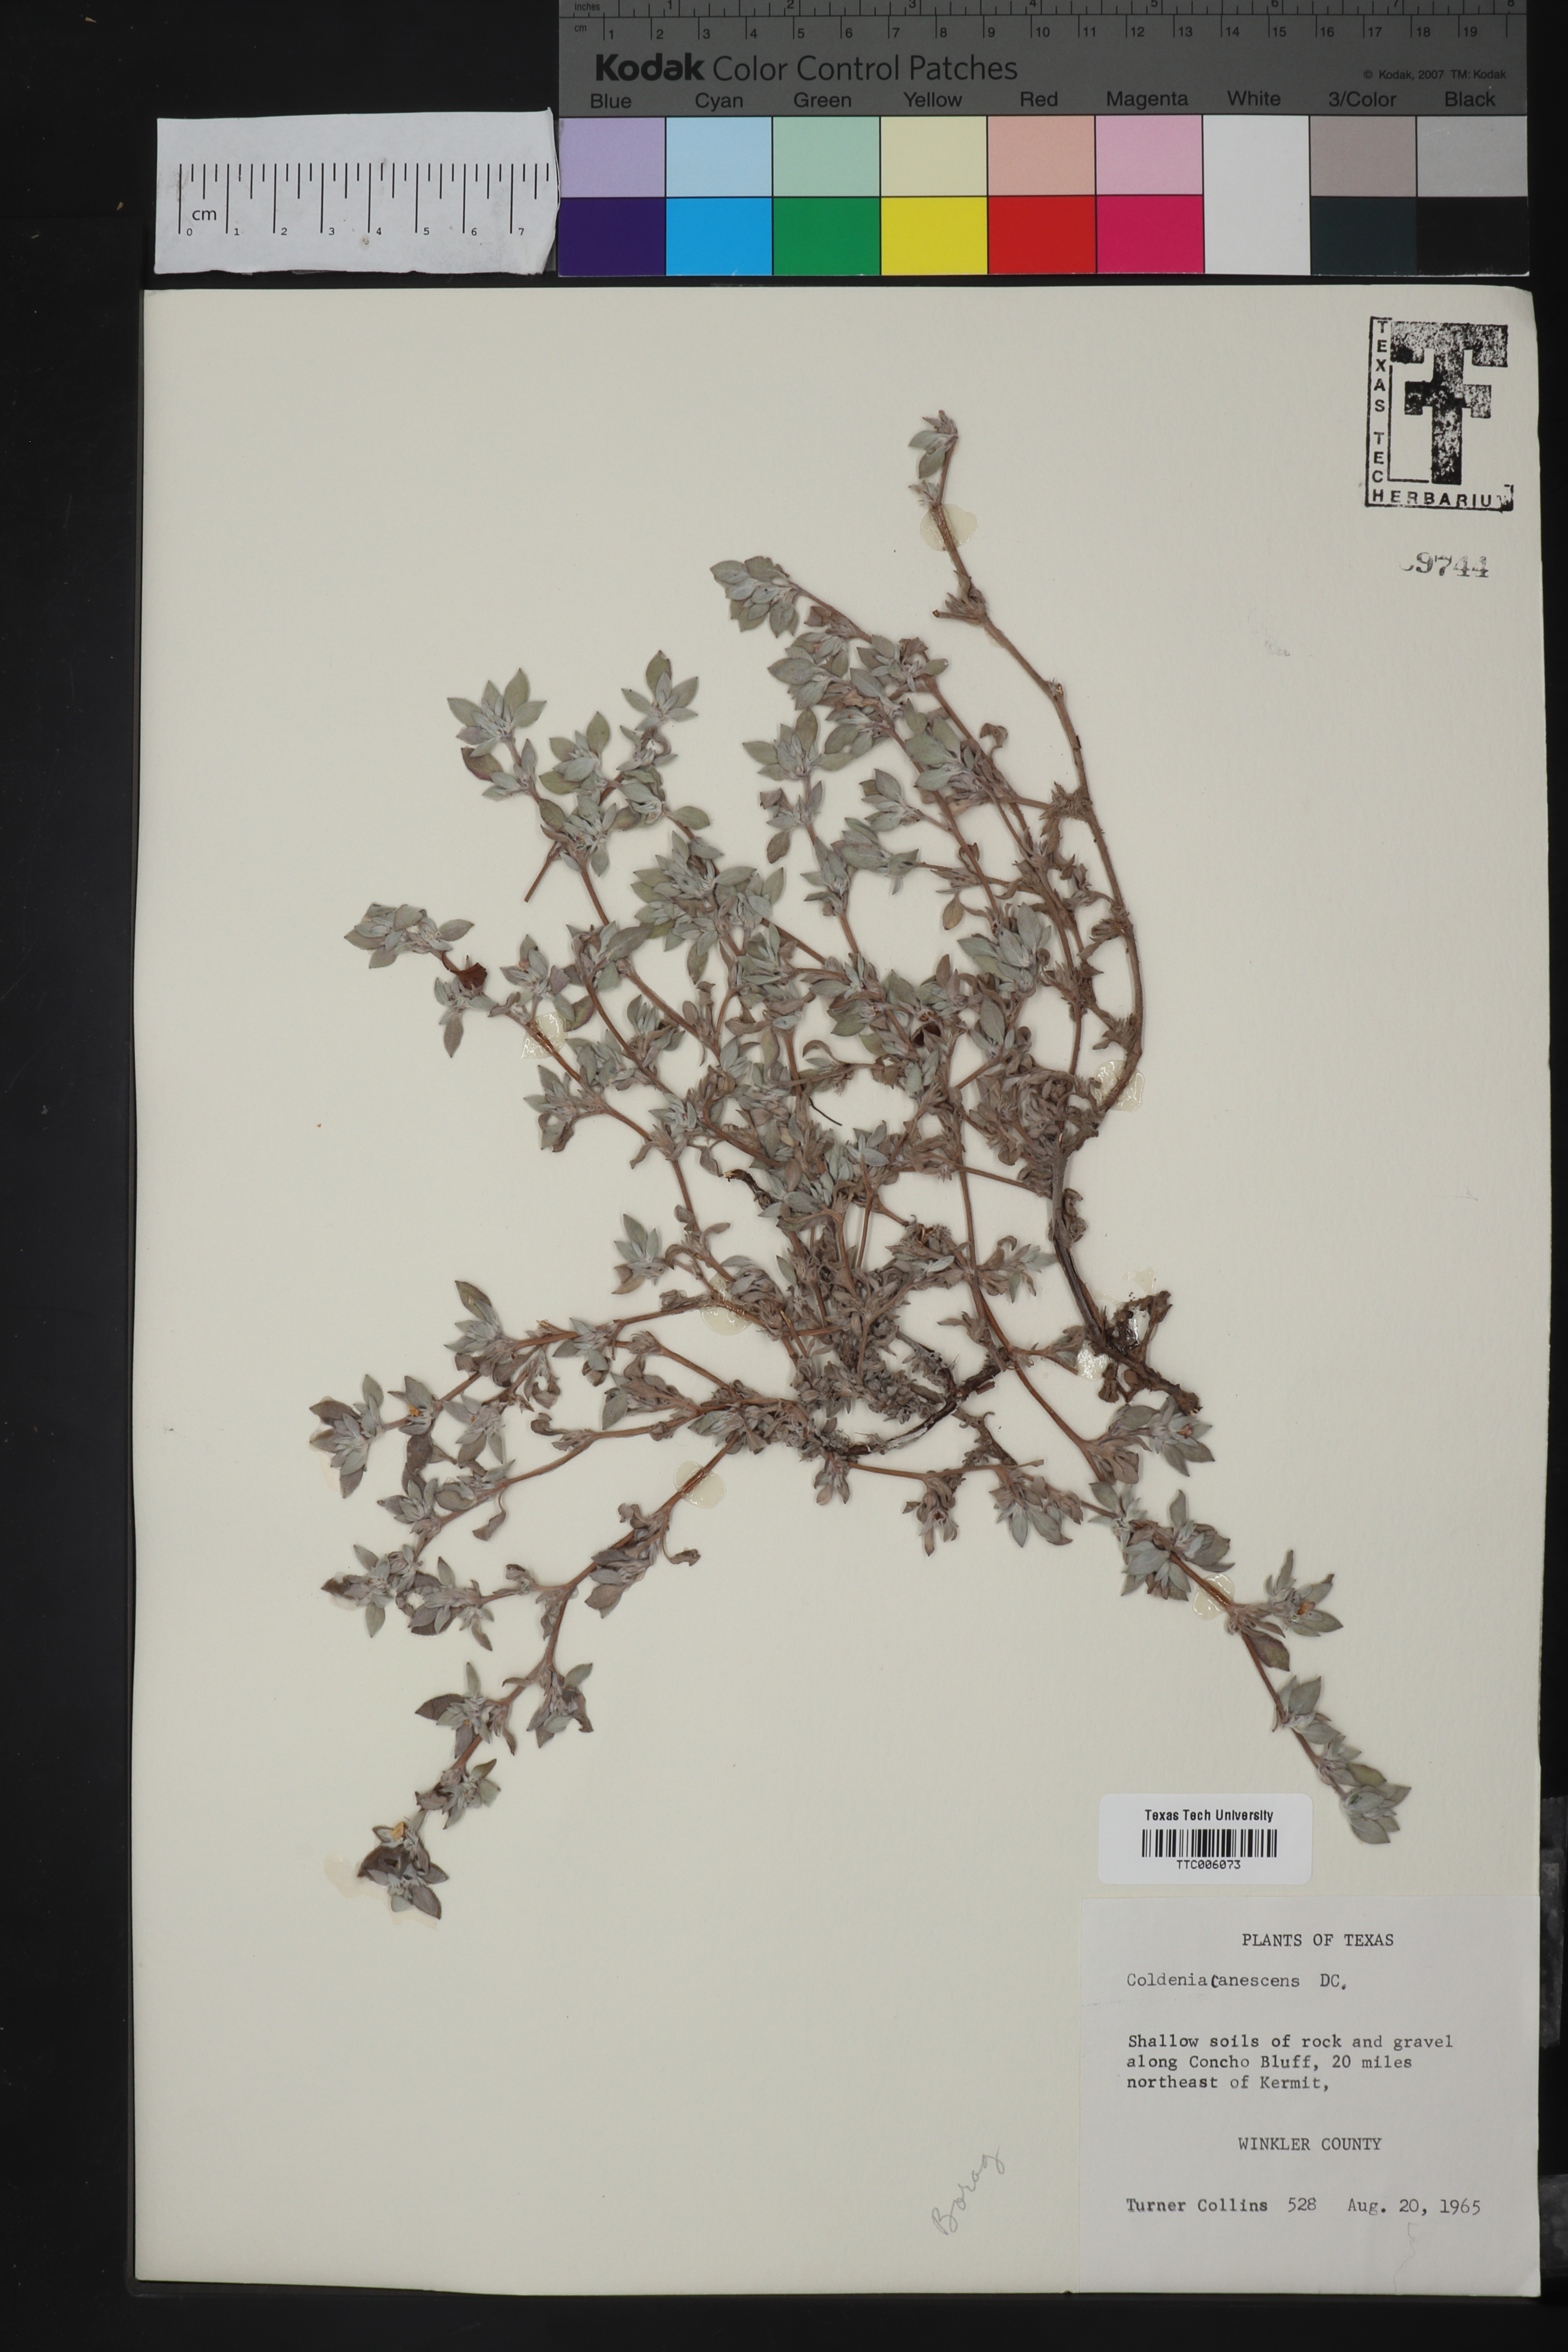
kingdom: Plantae
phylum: Tracheophyta
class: Magnoliopsida
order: Boraginales
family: Ehretiaceae
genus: Tiquilia
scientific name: Tiquilia canescens
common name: Hairy tiquilia
